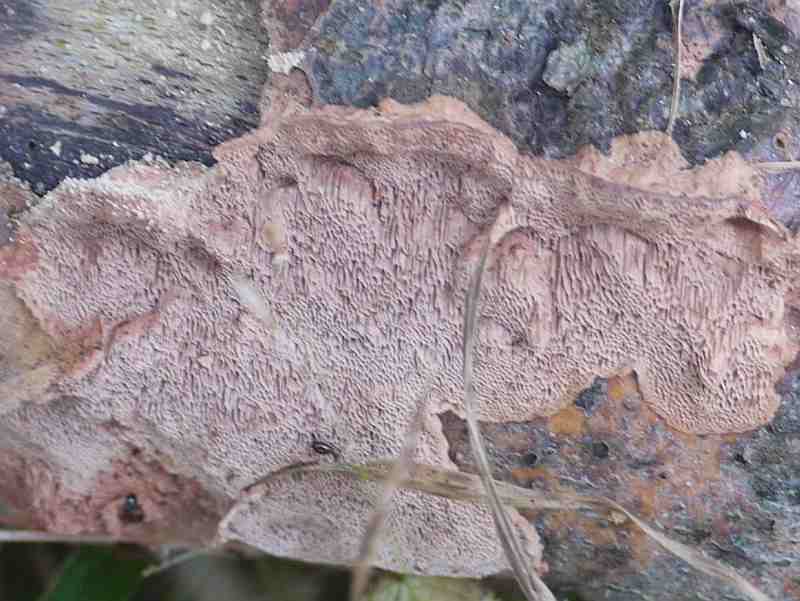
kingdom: Fungi
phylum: Basidiomycota
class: Agaricomycetes
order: Polyporales
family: Phanerochaetaceae
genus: Hapalopilus
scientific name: Hapalopilus rutilans
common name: rødlig okkerporesvamp
